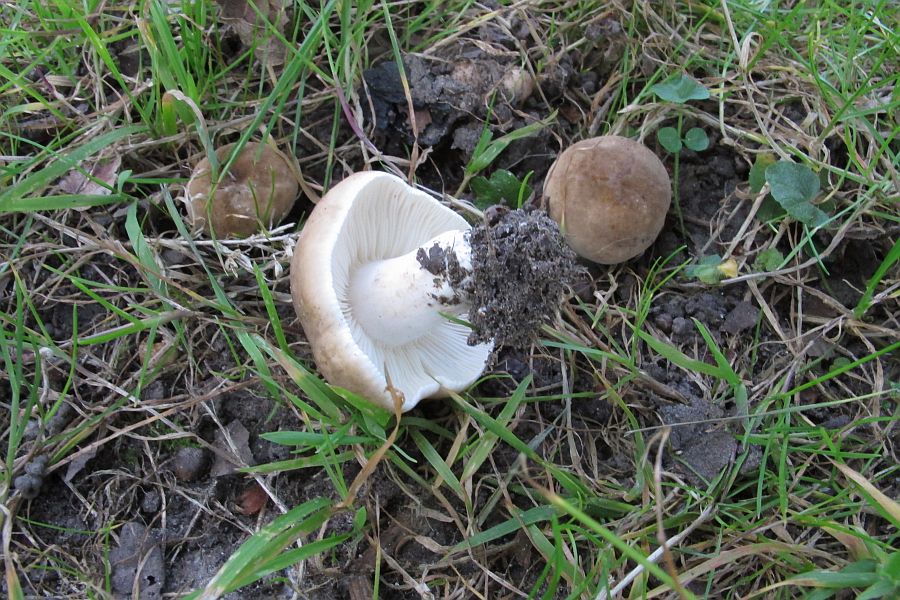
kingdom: Fungi
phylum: Basidiomycota
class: Agaricomycetes
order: Russulales
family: Russulaceae
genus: Lactarius
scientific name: Lactarius azonites
